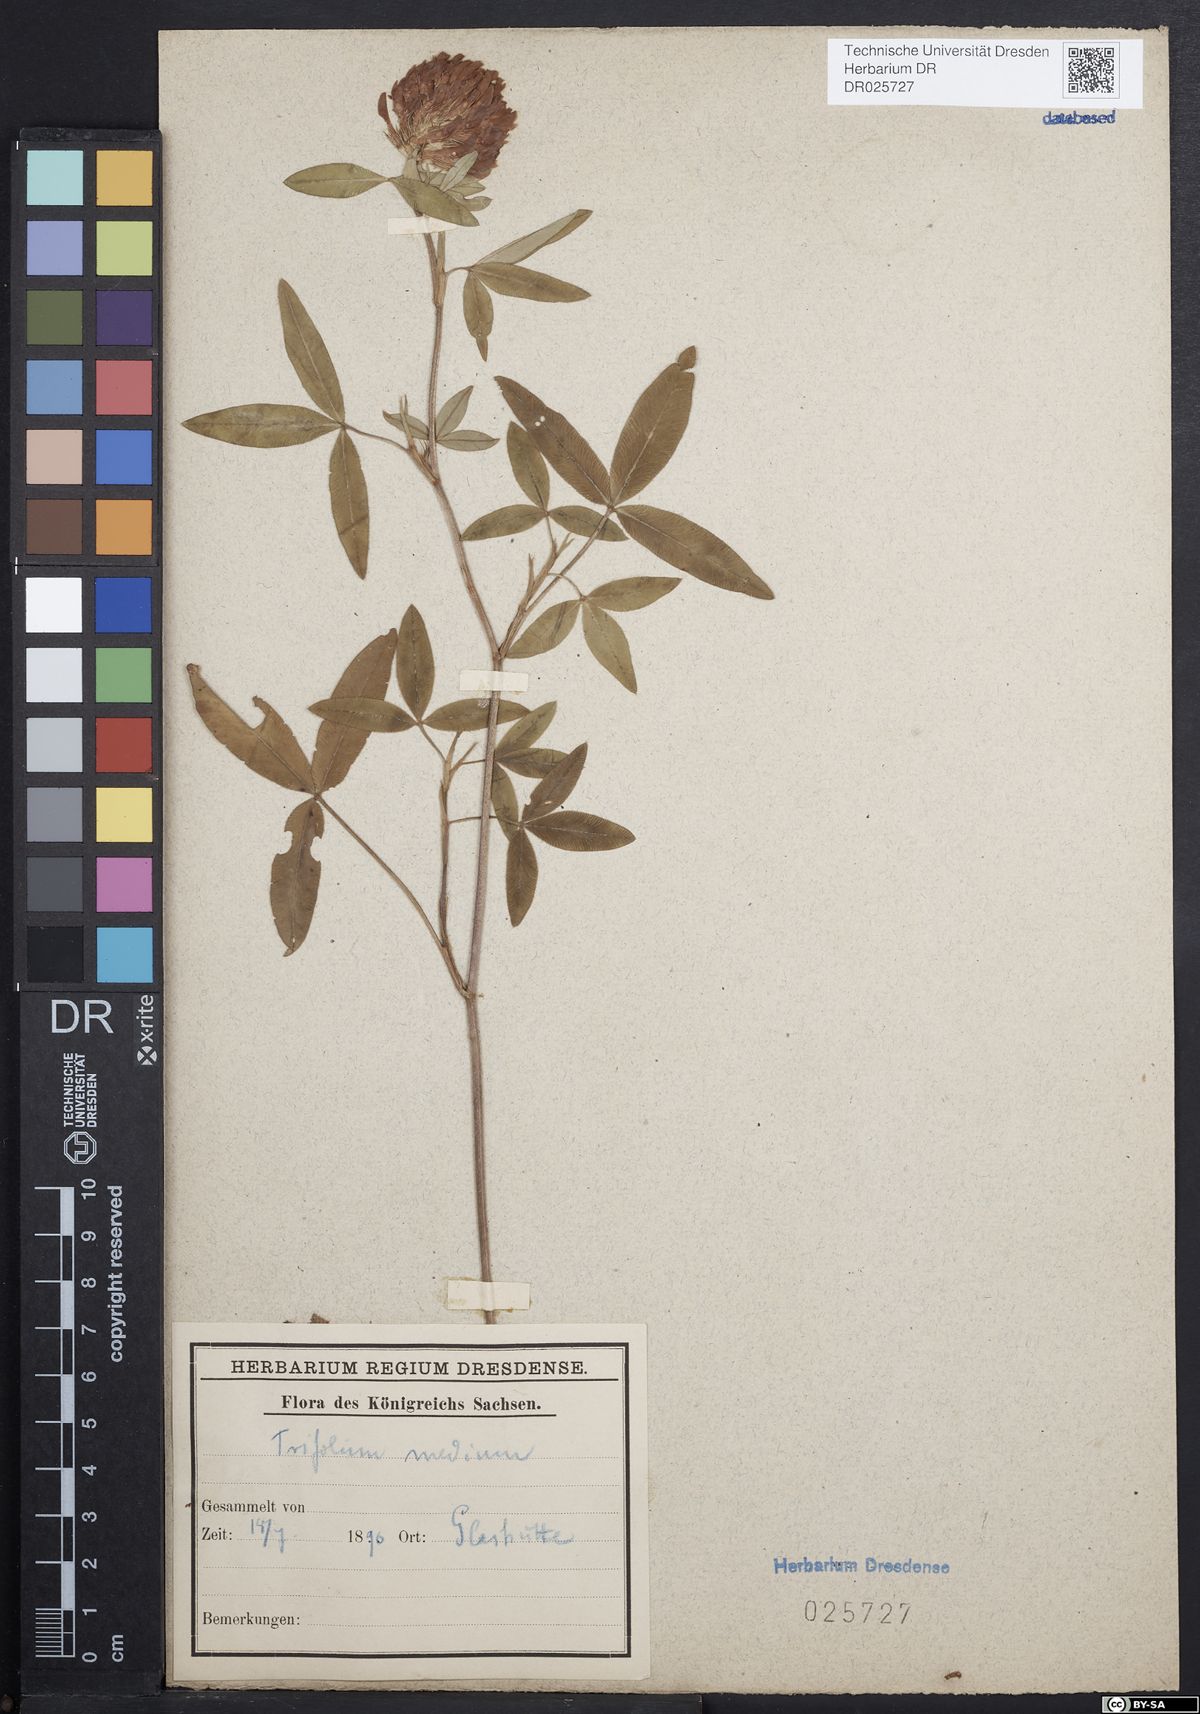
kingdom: Plantae
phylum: Tracheophyta
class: Magnoliopsida
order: Fabales
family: Fabaceae
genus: Trifolium
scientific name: Trifolium medium
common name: Zigzag clover
